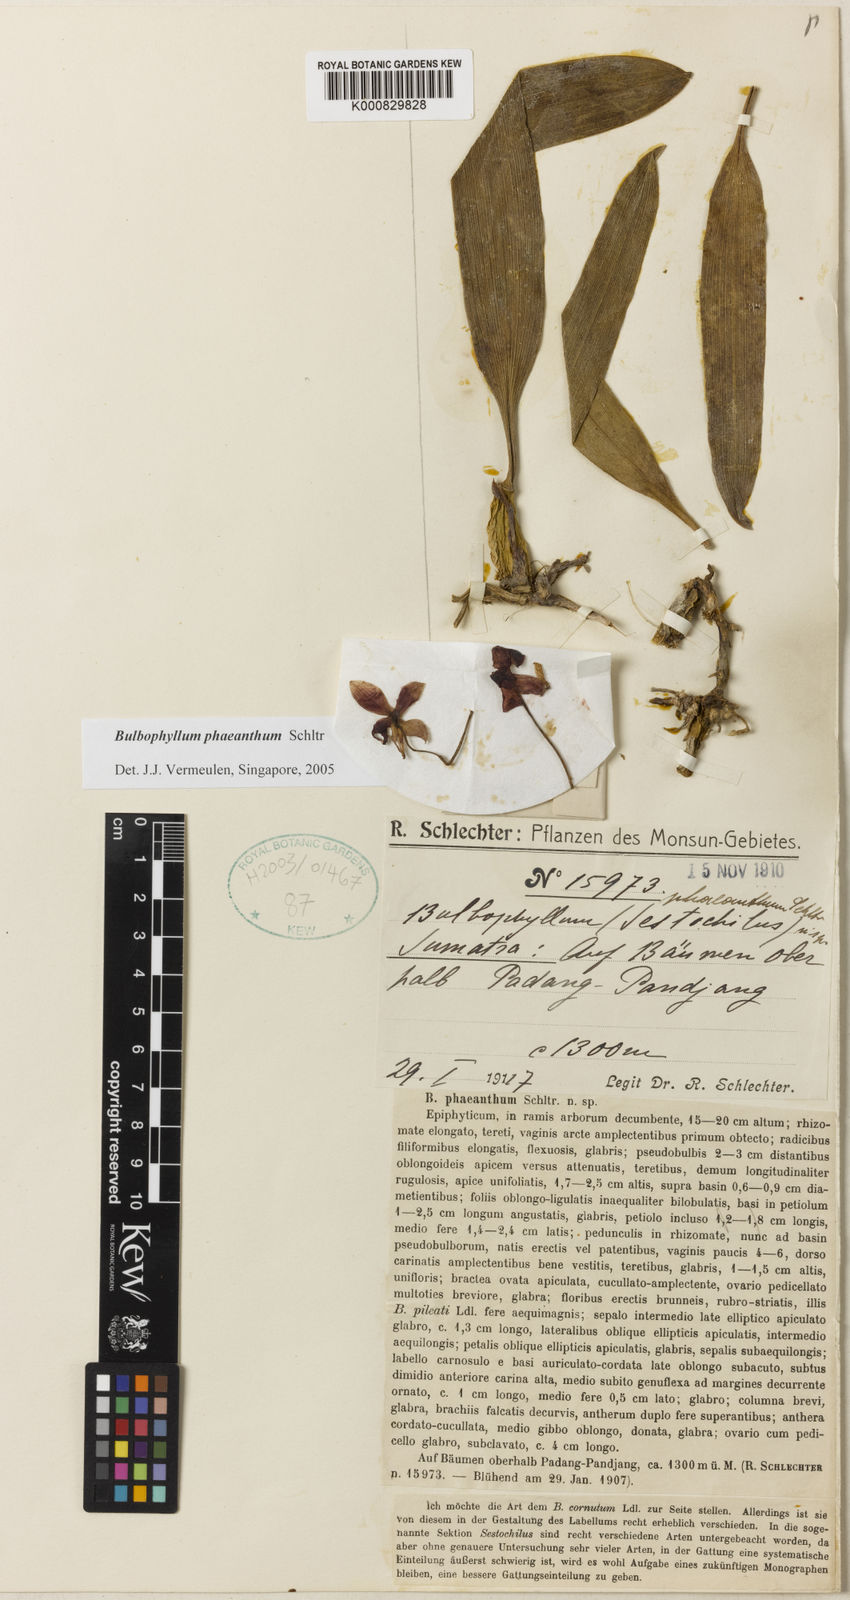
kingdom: Plantae
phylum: Tracheophyta
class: Liliopsida
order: Asparagales
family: Orchidaceae
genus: Bulbophyllum
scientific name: Bulbophyllum phaeanthum
